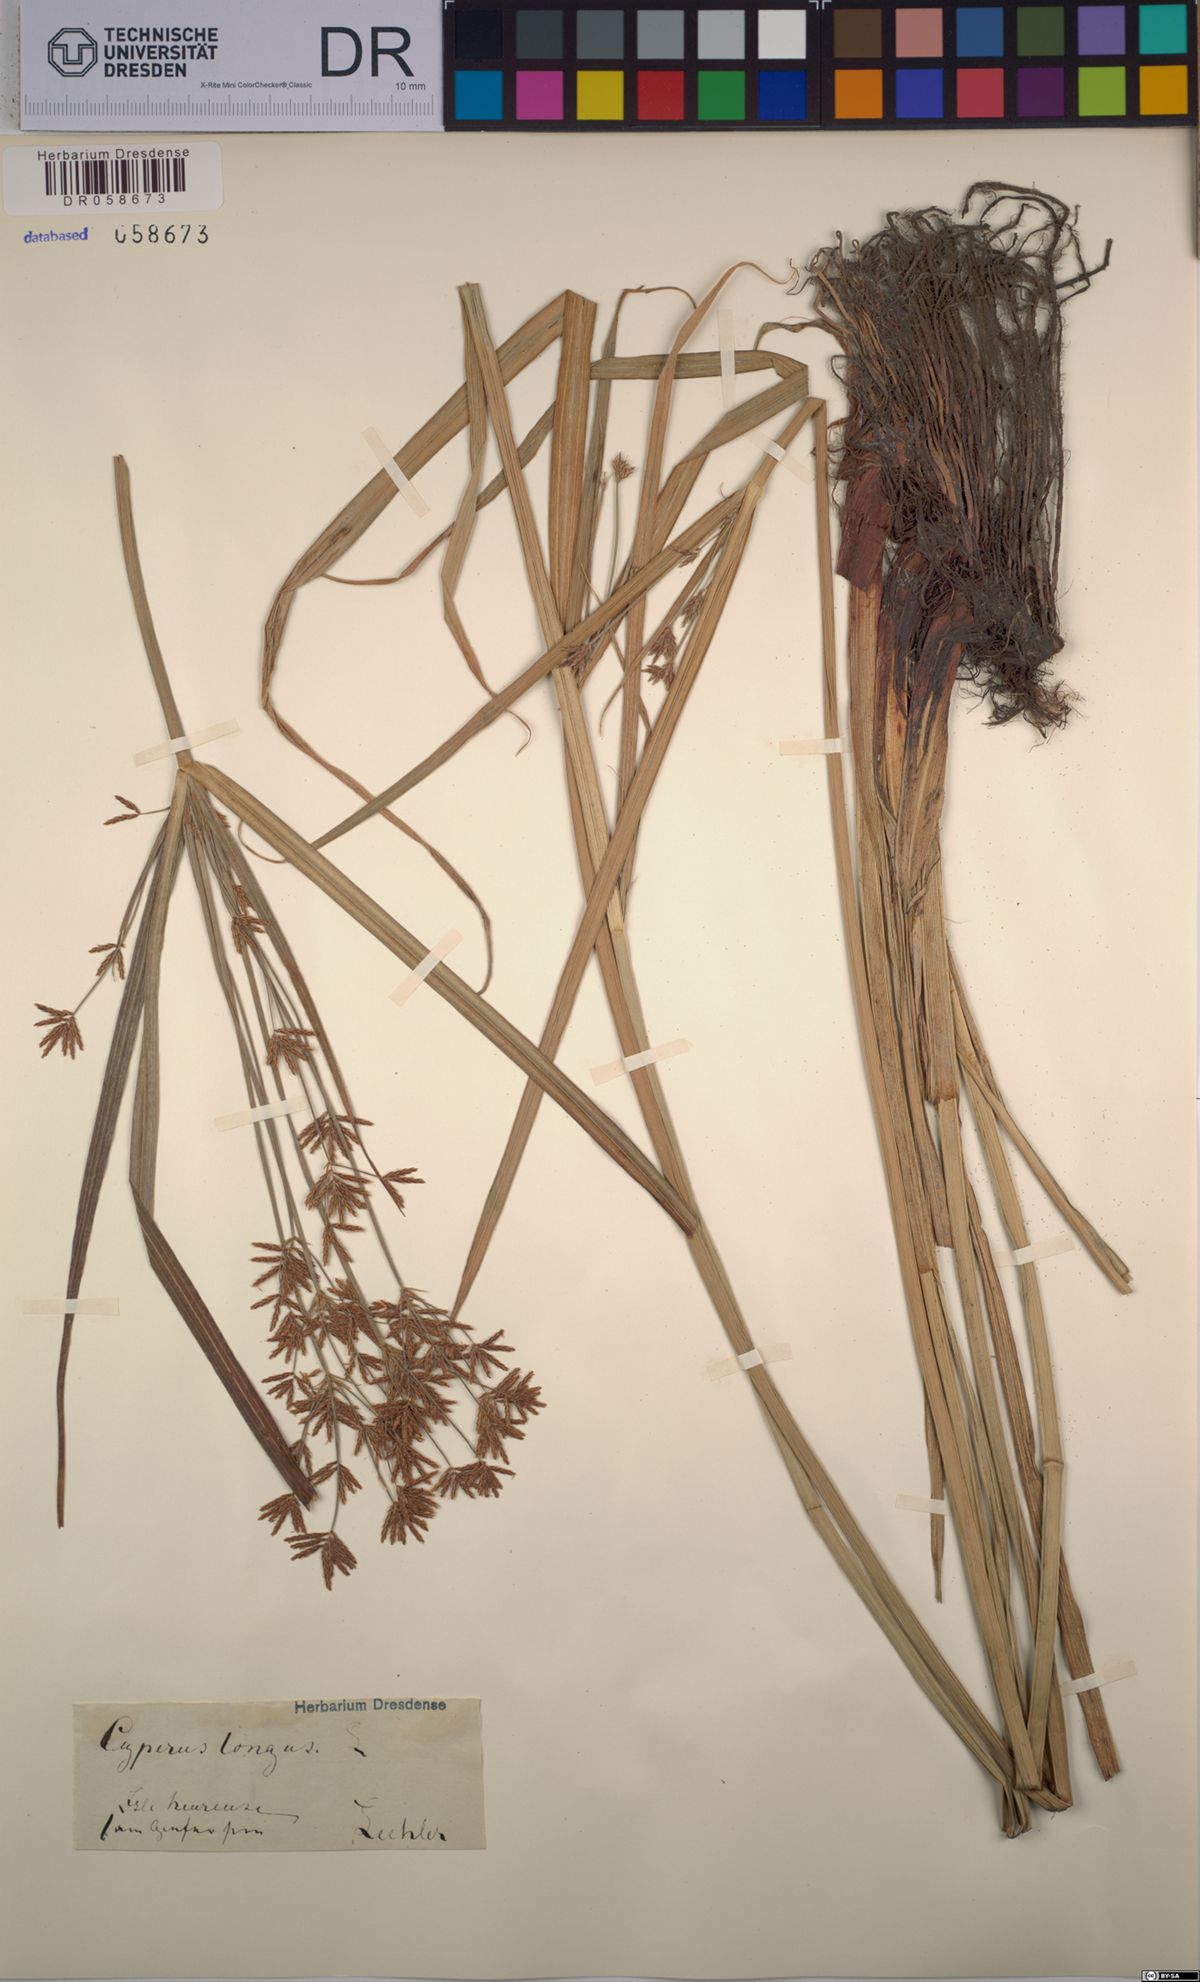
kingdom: Plantae
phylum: Tracheophyta
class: Liliopsida
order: Poales
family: Cyperaceae
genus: Cyperus
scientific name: Cyperus longus
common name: Galingale
